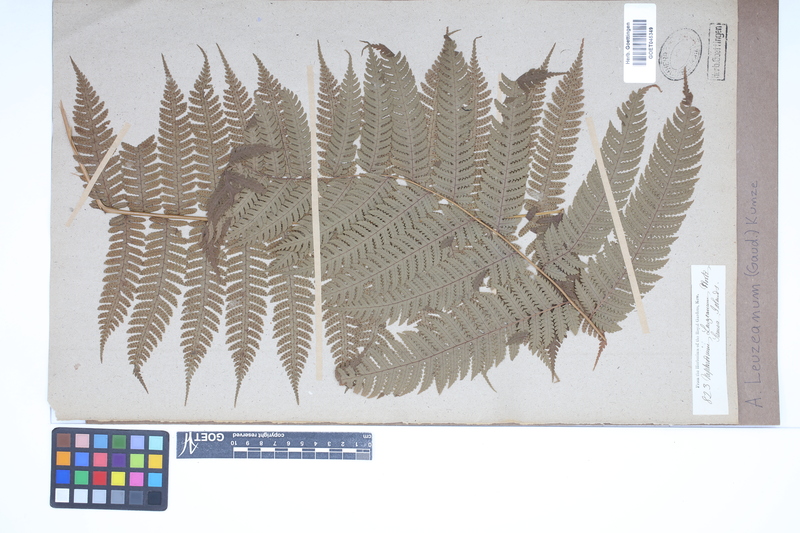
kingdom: Plantae
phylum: Tracheophyta
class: Polypodiopsida
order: Polypodiales
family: Dryopteridaceae
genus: Pleocnemia
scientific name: Pleocnemia leuzeana
